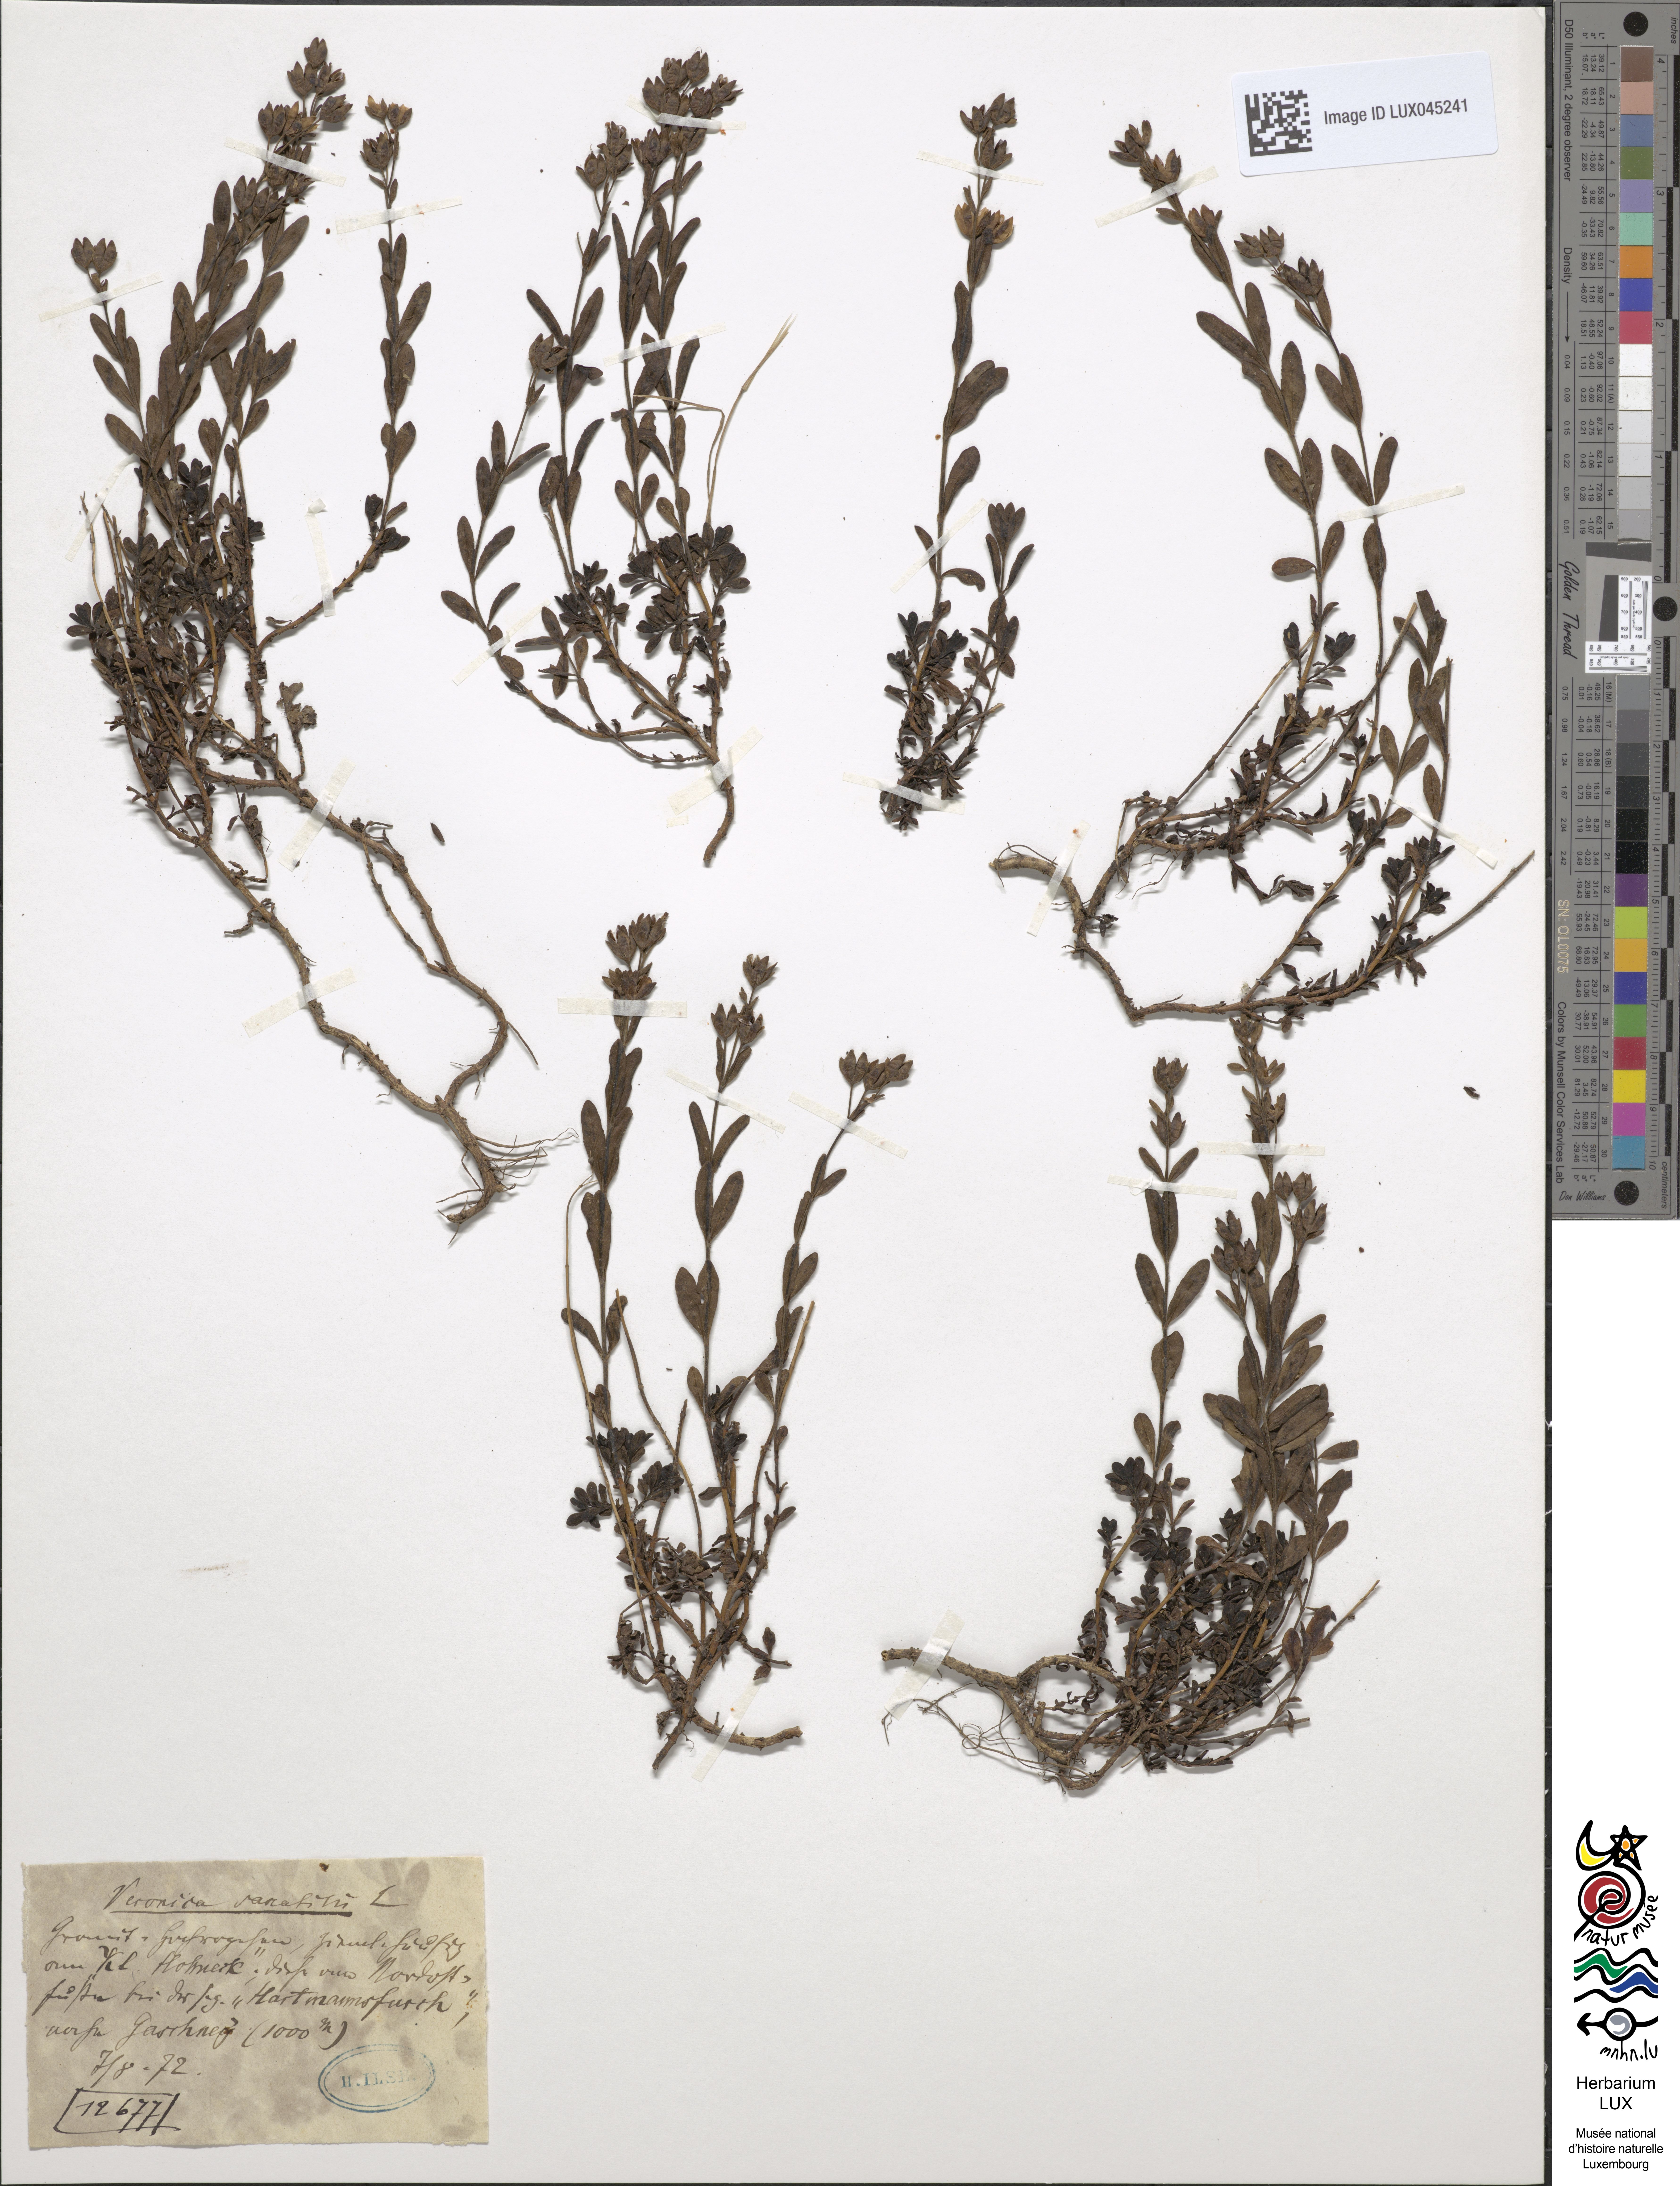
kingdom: Plantae
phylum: Tracheophyta
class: Magnoliopsida
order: Lamiales
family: Plantaginaceae
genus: Veronica
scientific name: Veronica fruticans
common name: Rock speedwell
